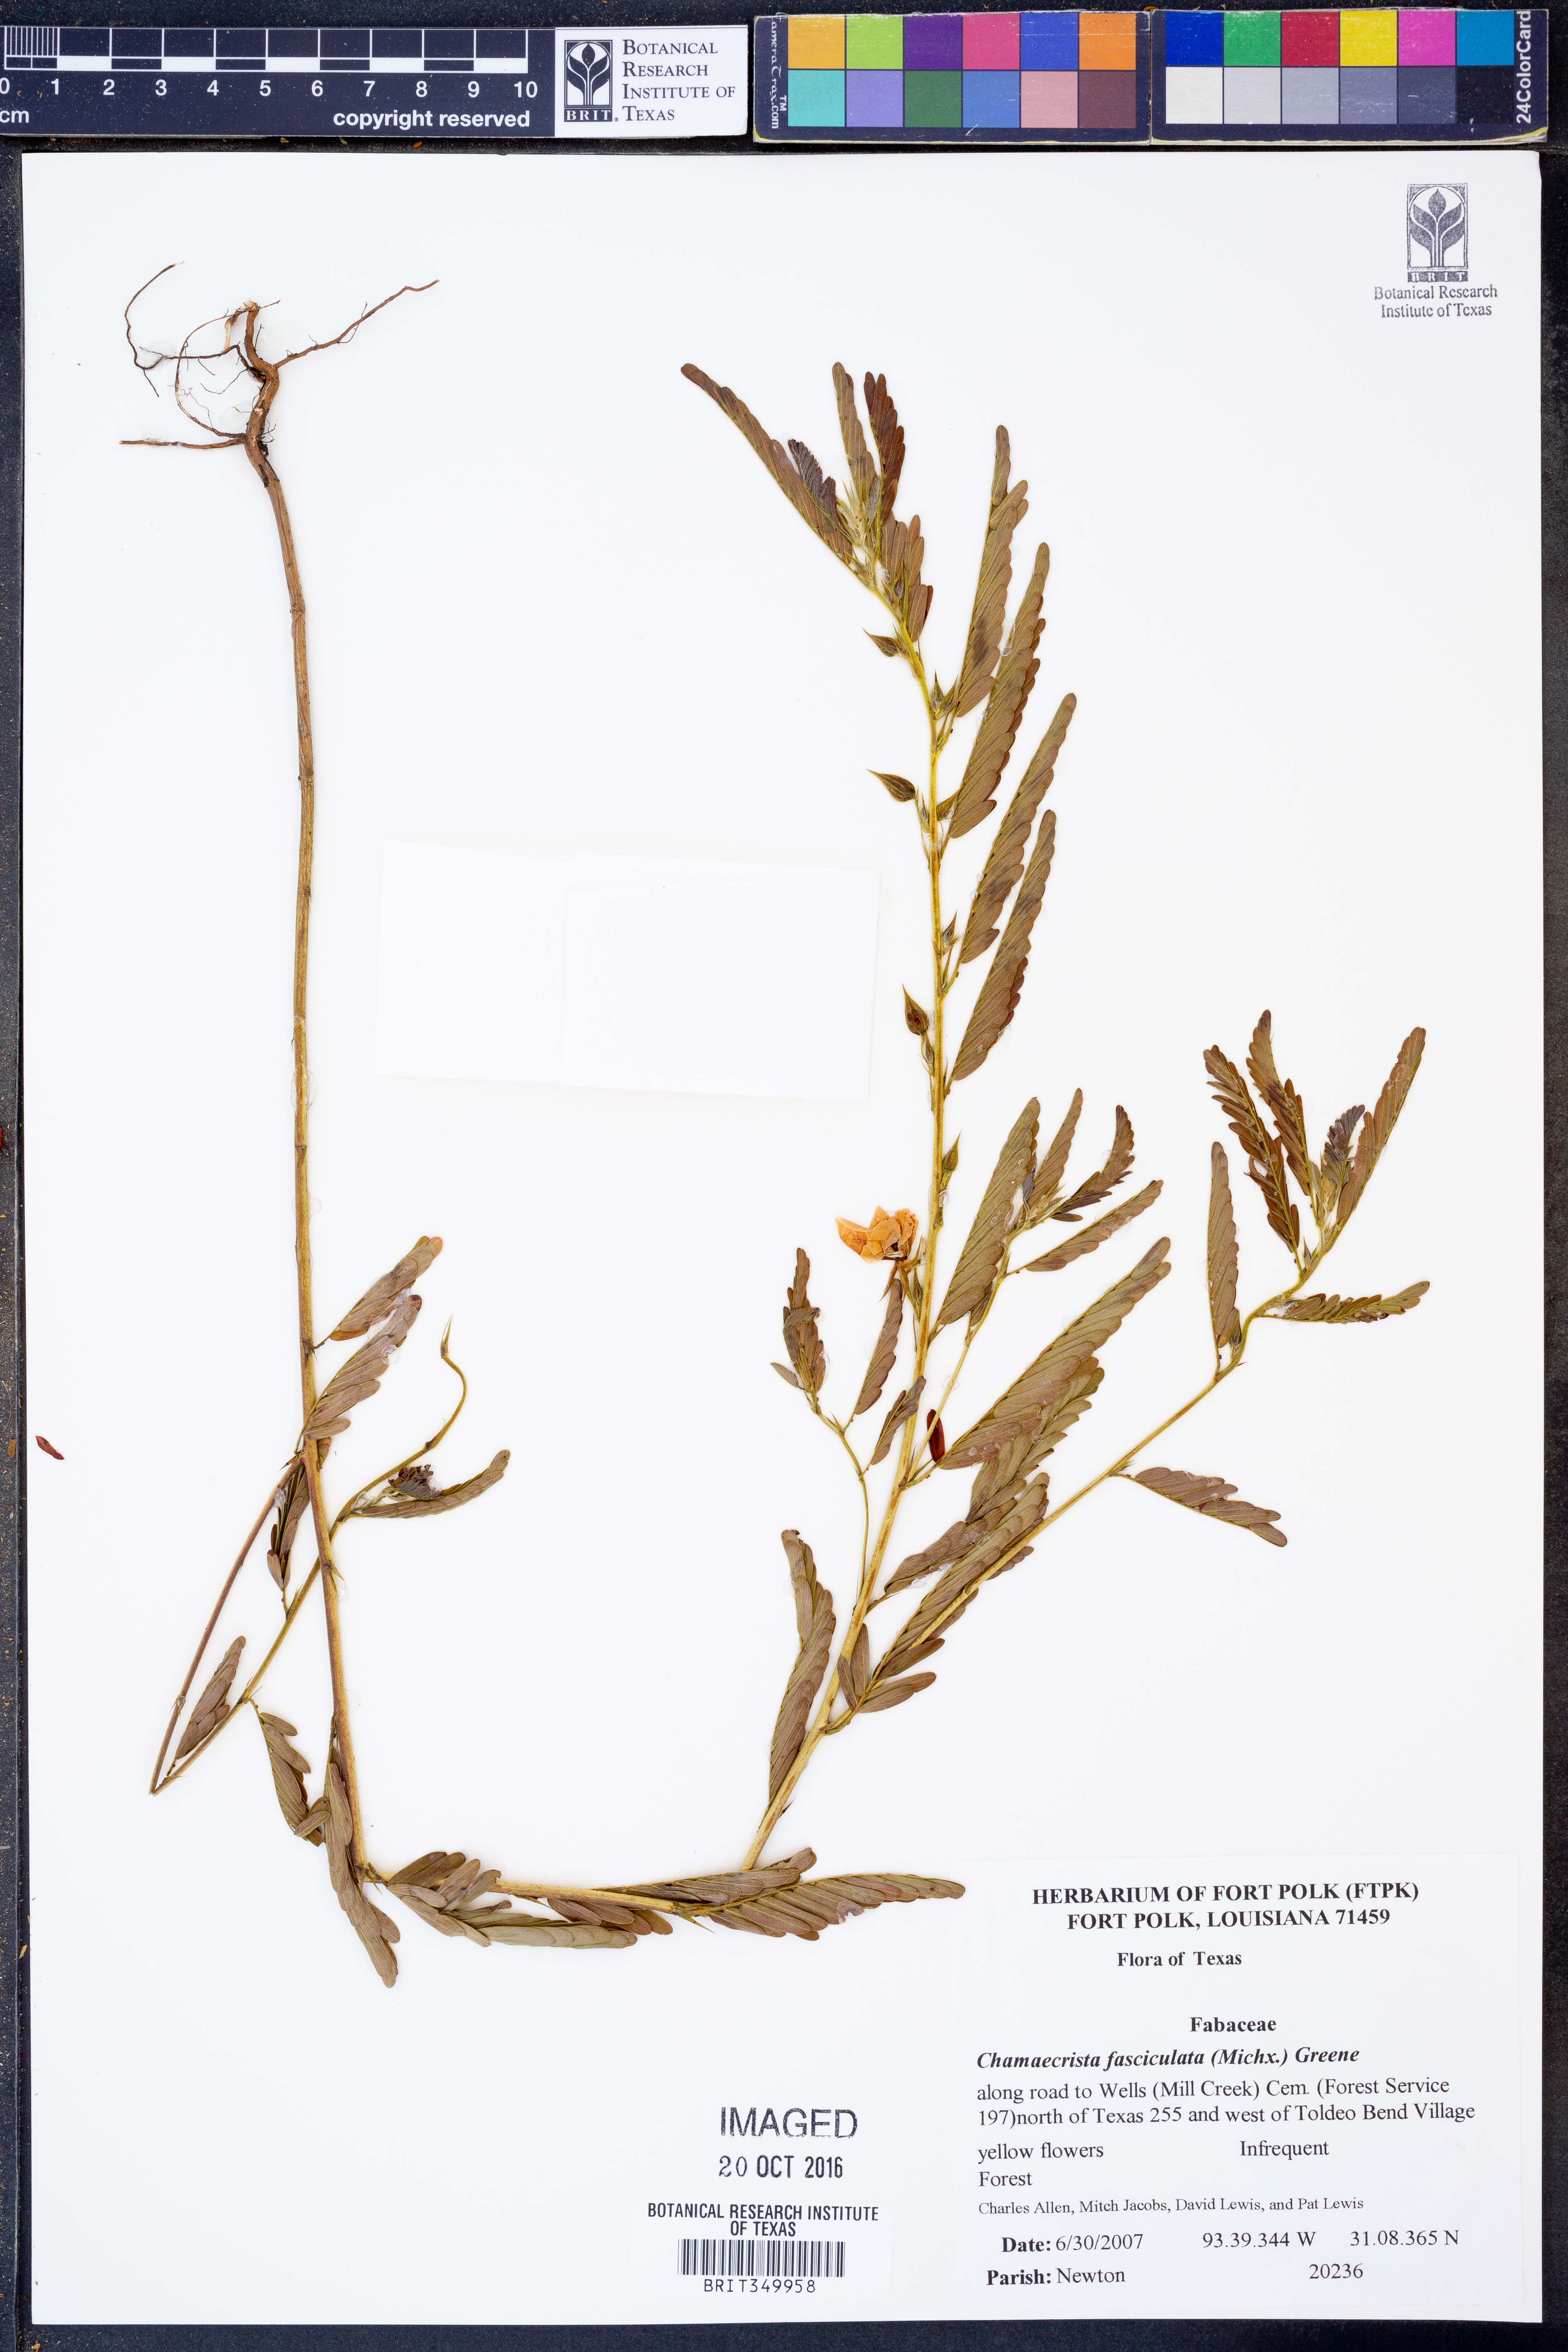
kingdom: Plantae
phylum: Tracheophyta
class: Magnoliopsida
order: Fabales
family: Fabaceae
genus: Chamaecrista
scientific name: Chamaecrista fasciculata
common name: Golden cassia
